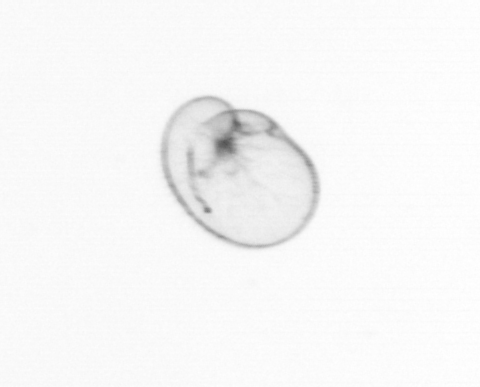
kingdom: Chromista
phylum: Myzozoa
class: Dinophyceae
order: Noctilucales
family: Noctilucaceae
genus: Noctiluca
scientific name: Noctiluca scintillans
